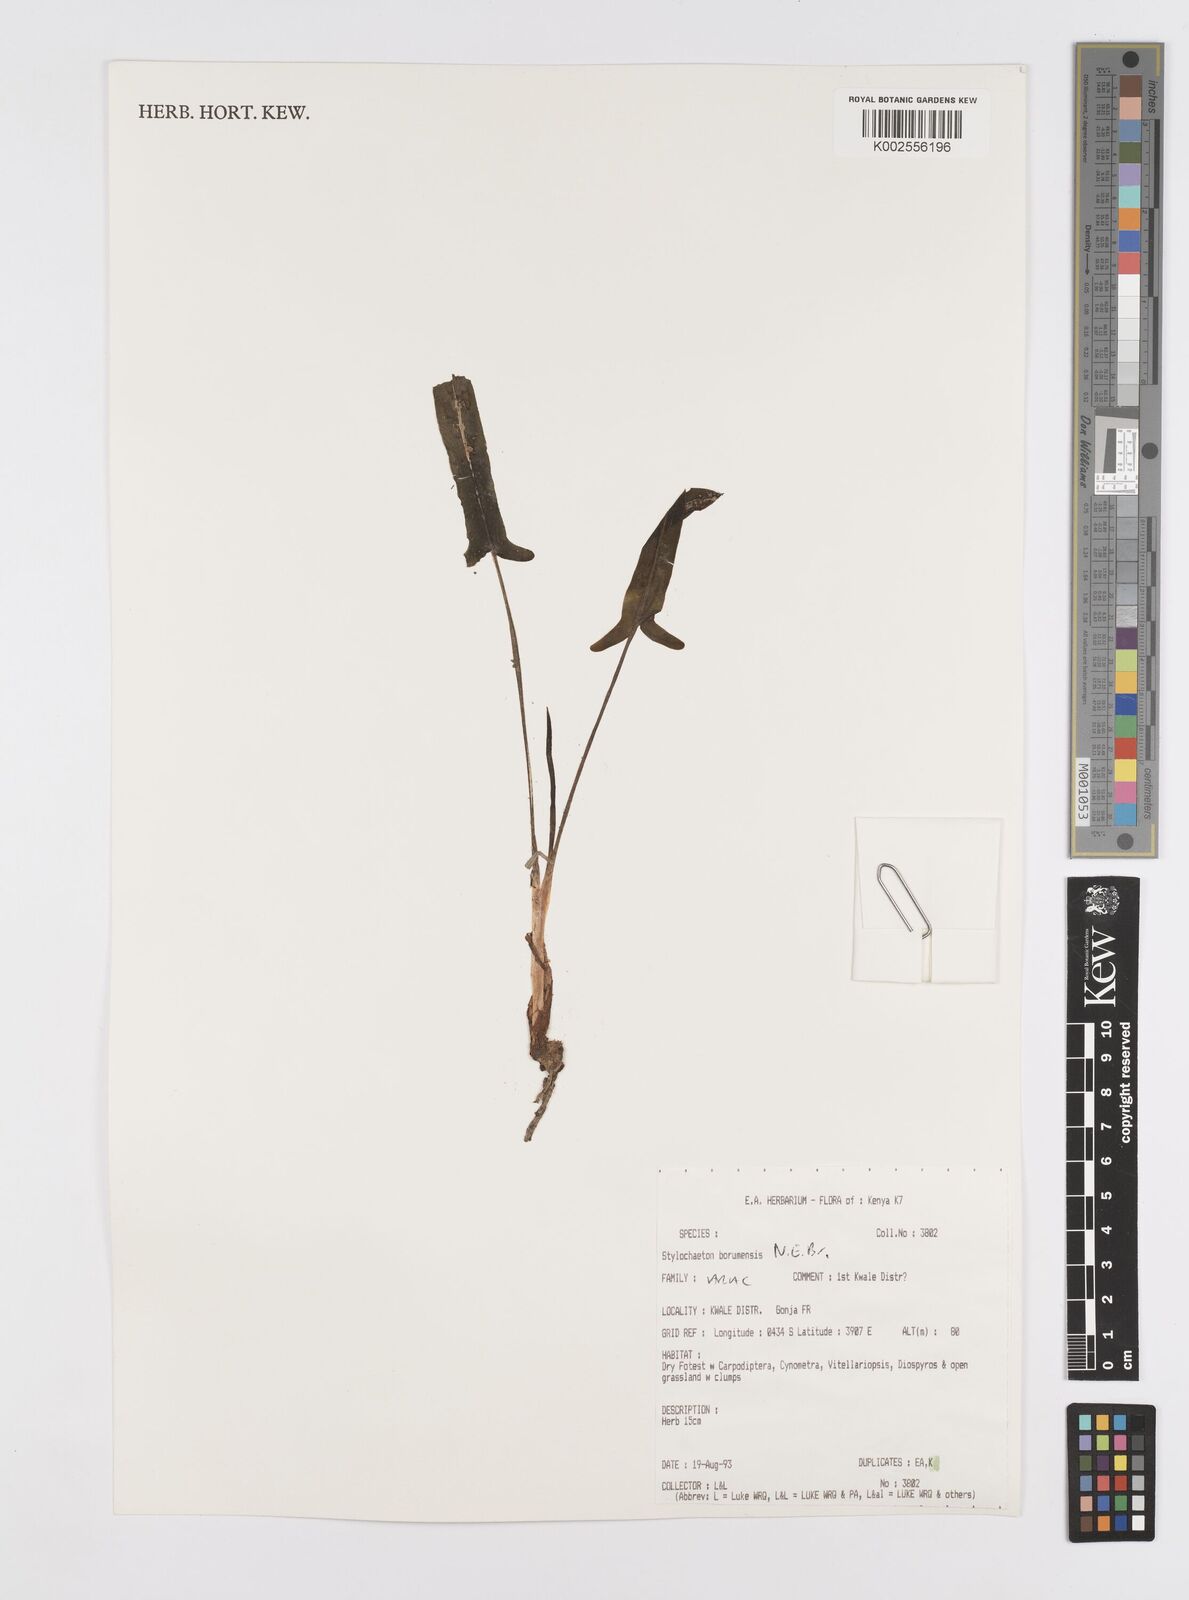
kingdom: Plantae
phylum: Tracheophyta
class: Liliopsida
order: Alismatales
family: Araceae
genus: Stylochaeton
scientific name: Stylochaeton borumense
